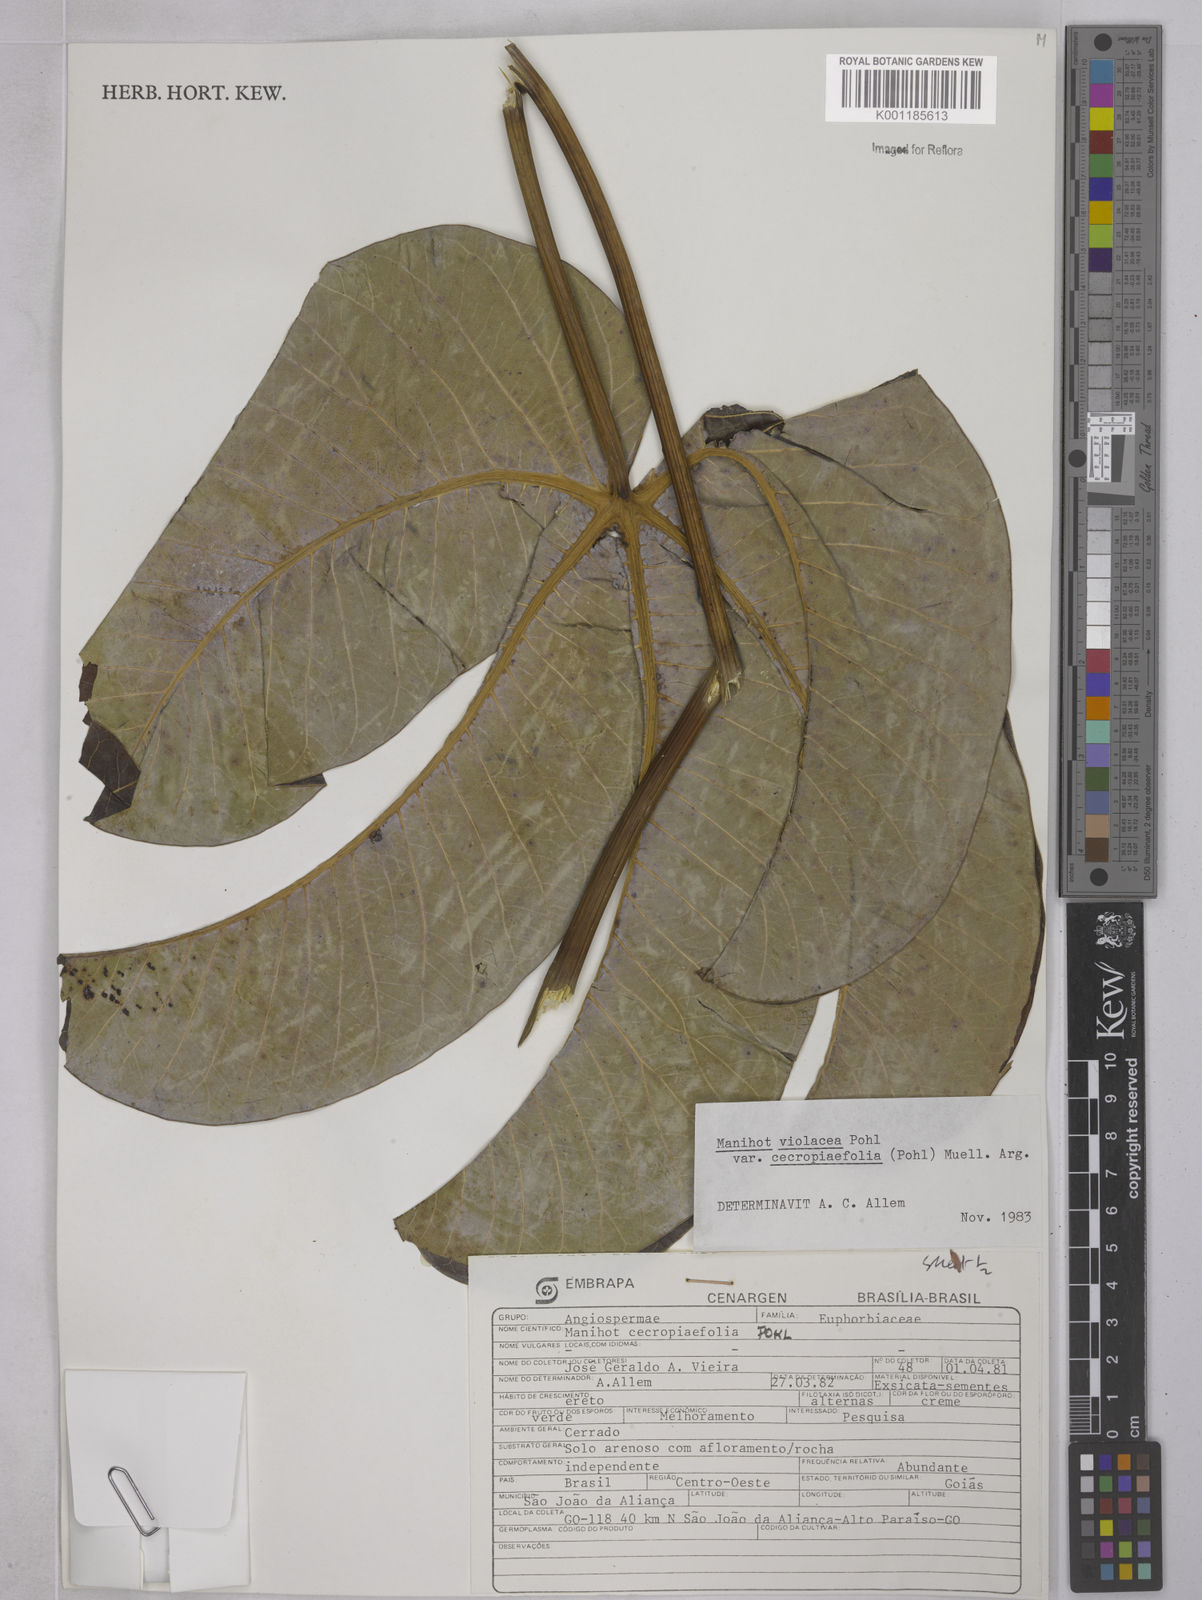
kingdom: Plantae
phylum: Tracheophyta
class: Magnoliopsida
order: Malpighiales
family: Euphorbiaceae
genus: Manihot
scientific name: Manihot cecropiifolia
